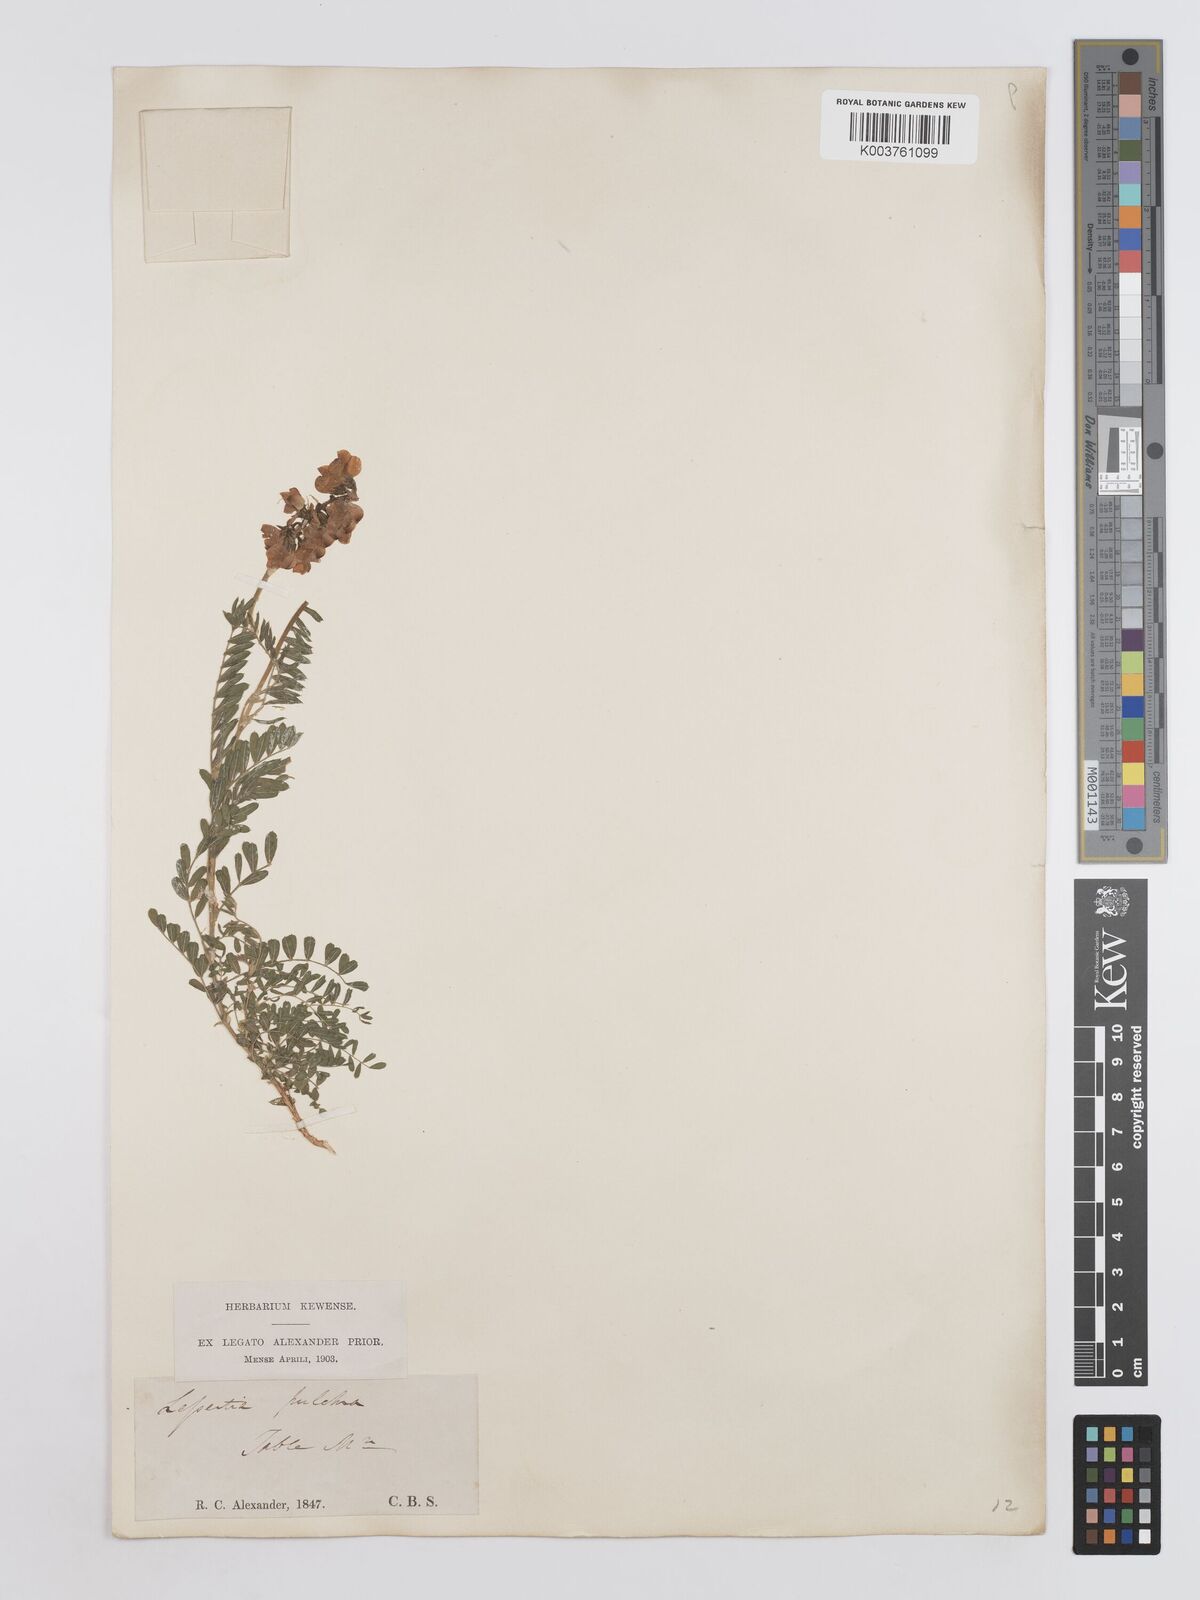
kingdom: Plantae
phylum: Tracheophyta
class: Magnoliopsida
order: Fabales
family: Fabaceae
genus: Lessertia
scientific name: Lessertia capensis
